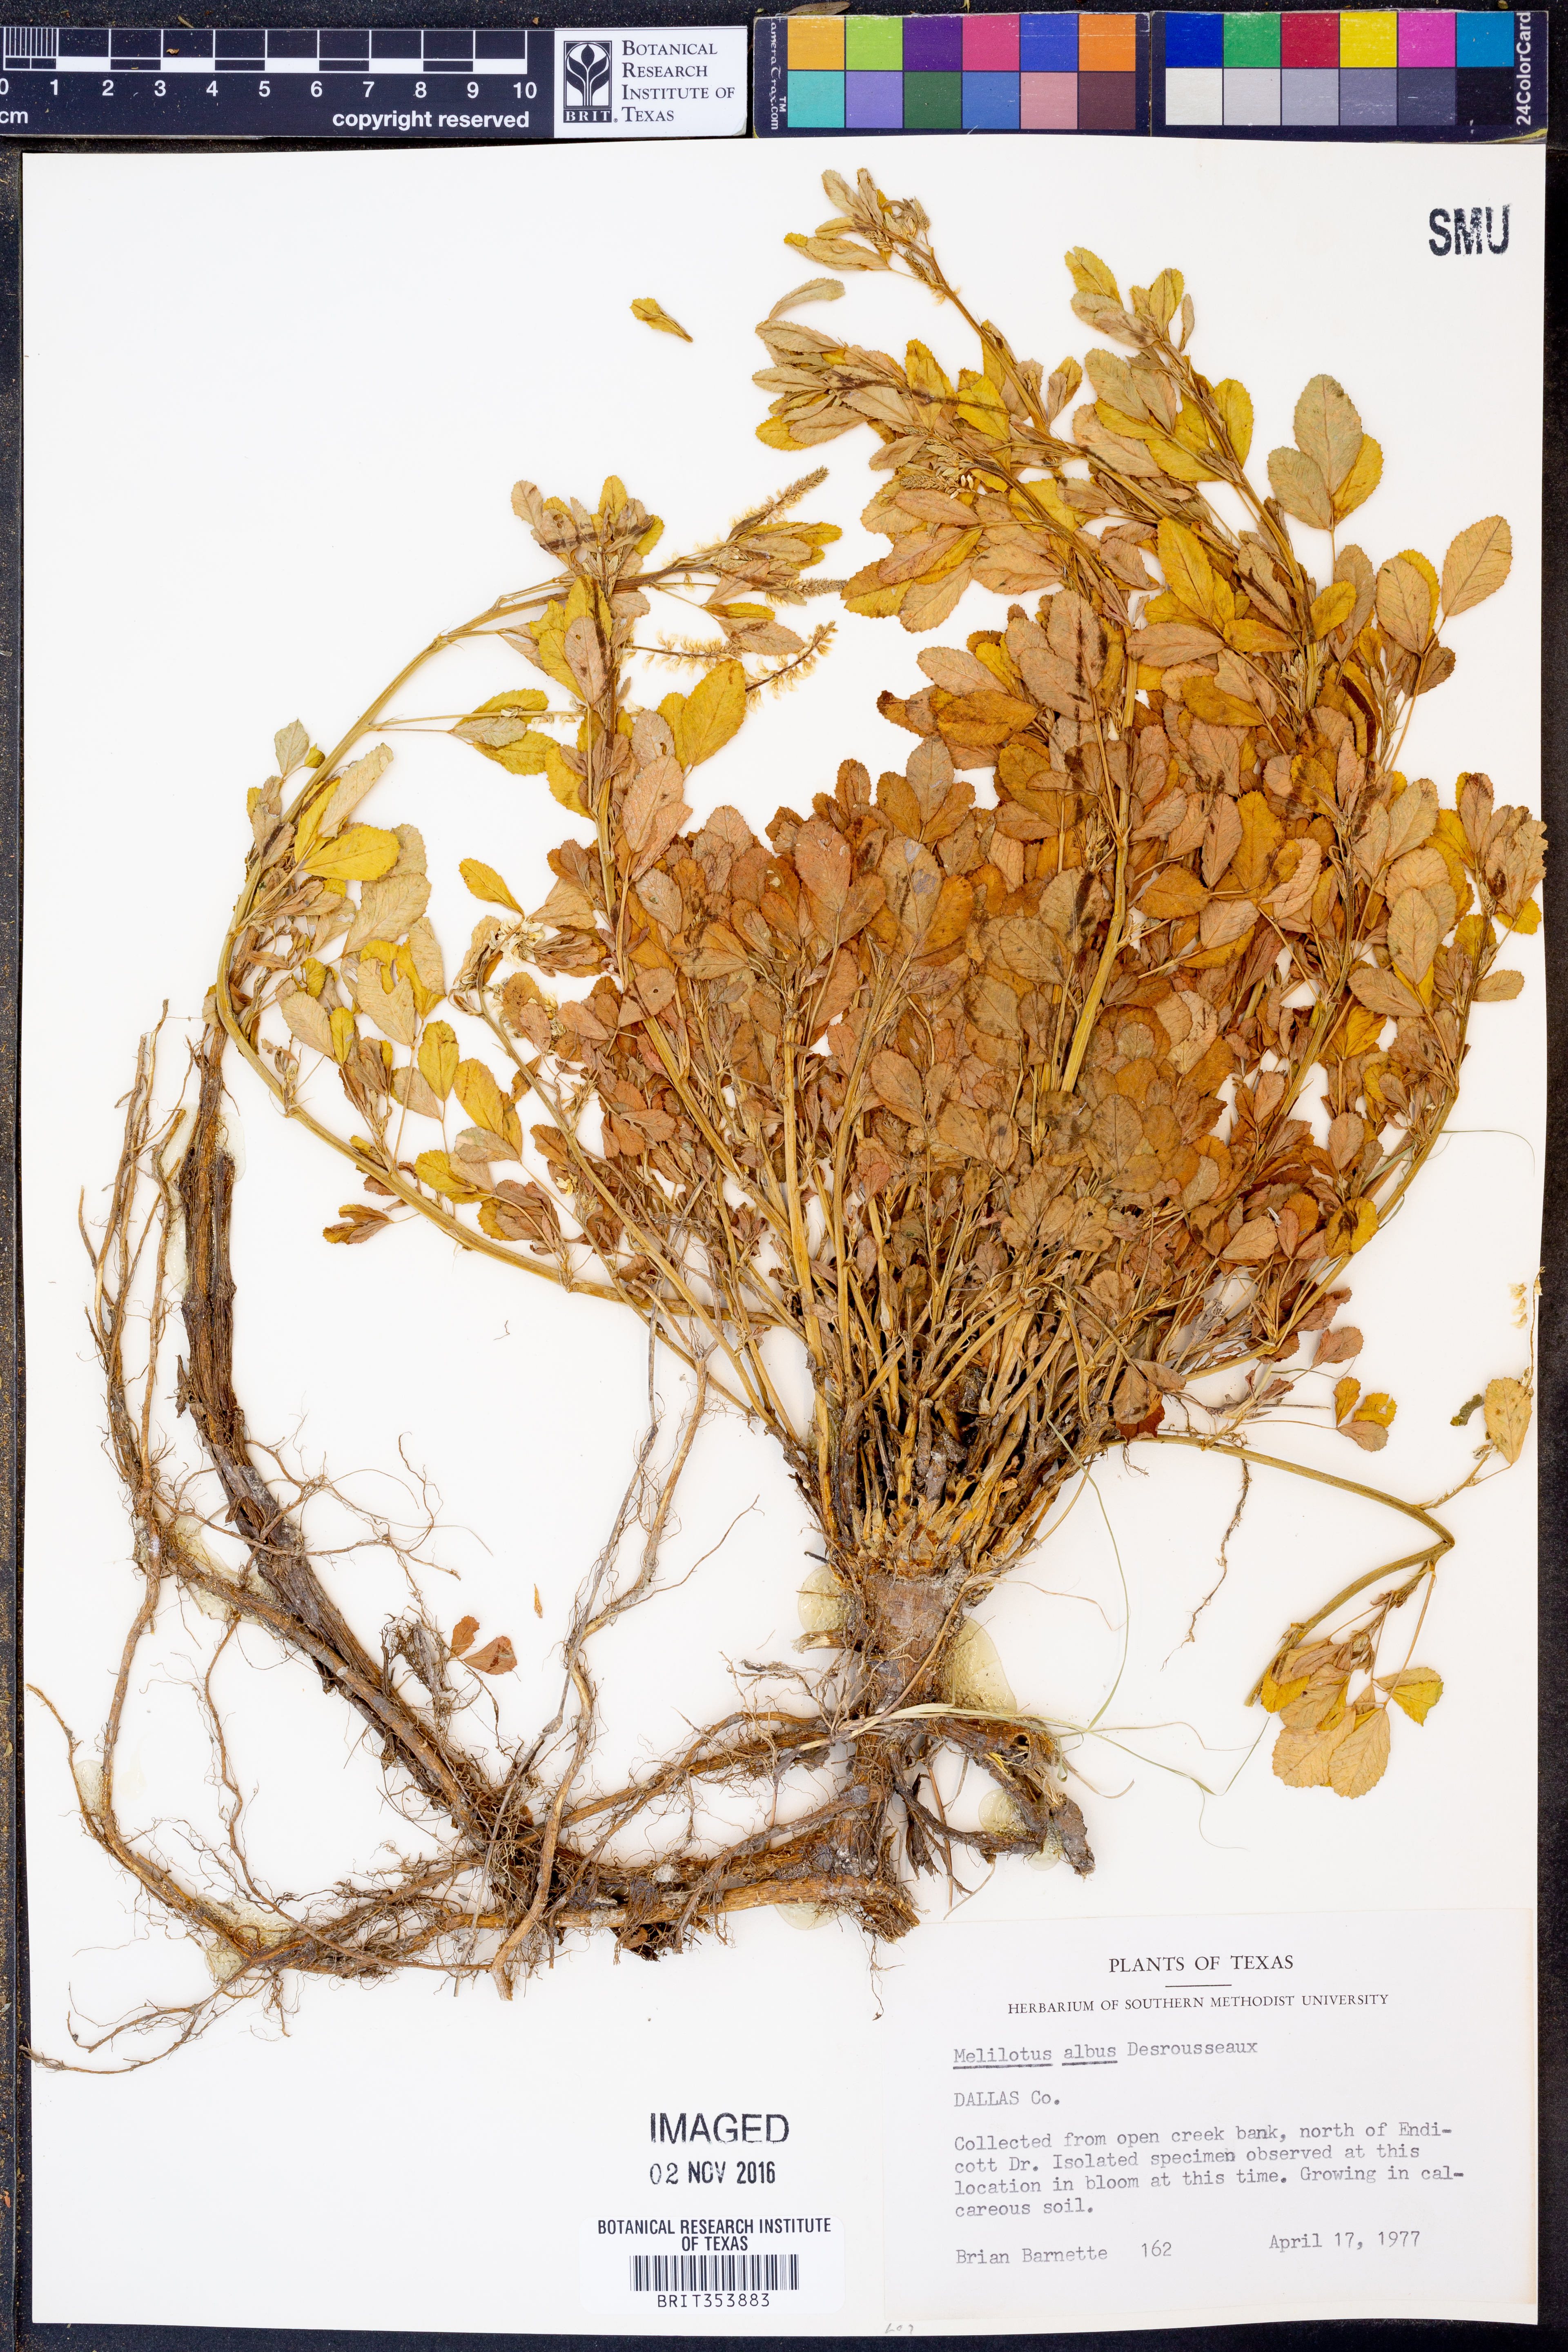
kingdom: Plantae
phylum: Tracheophyta
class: Magnoliopsida
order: Fabales
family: Fabaceae
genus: Melilotus
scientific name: Melilotus albus
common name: White melilot
